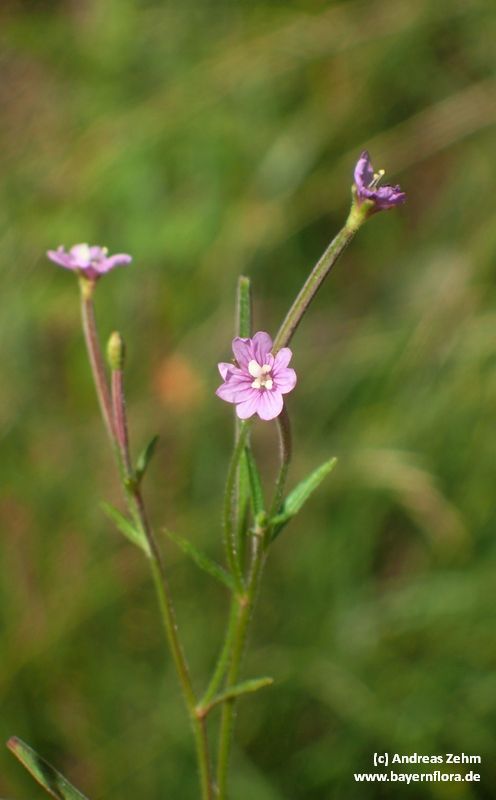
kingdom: Plantae
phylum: Tracheophyta
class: Magnoliopsida
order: Myrtales
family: Onagraceae
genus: Epilobium
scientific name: Epilobium parviflorum
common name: Hoary willowherb
